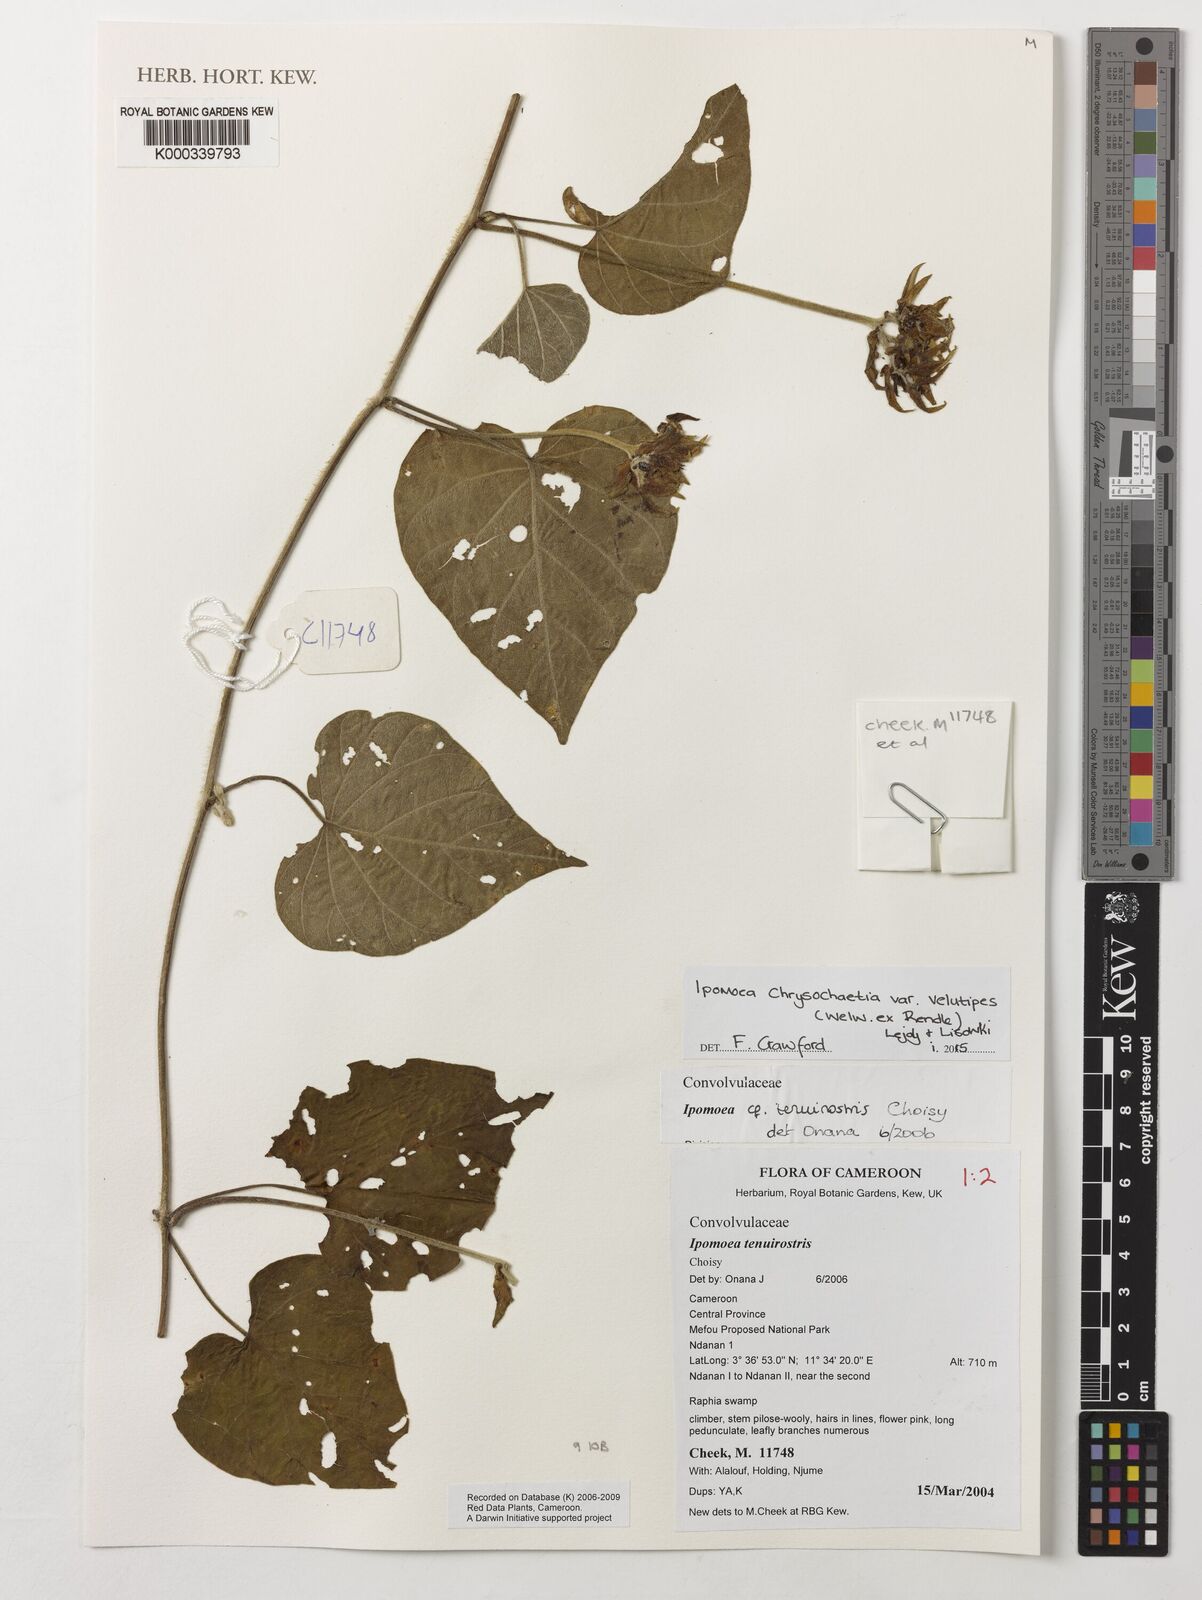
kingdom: Plantae
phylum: Tracheophyta
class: Magnoliopsida
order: Solanales
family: Convolvulaceae
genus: Ipomoea
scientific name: Ipomoea tenuirostris
